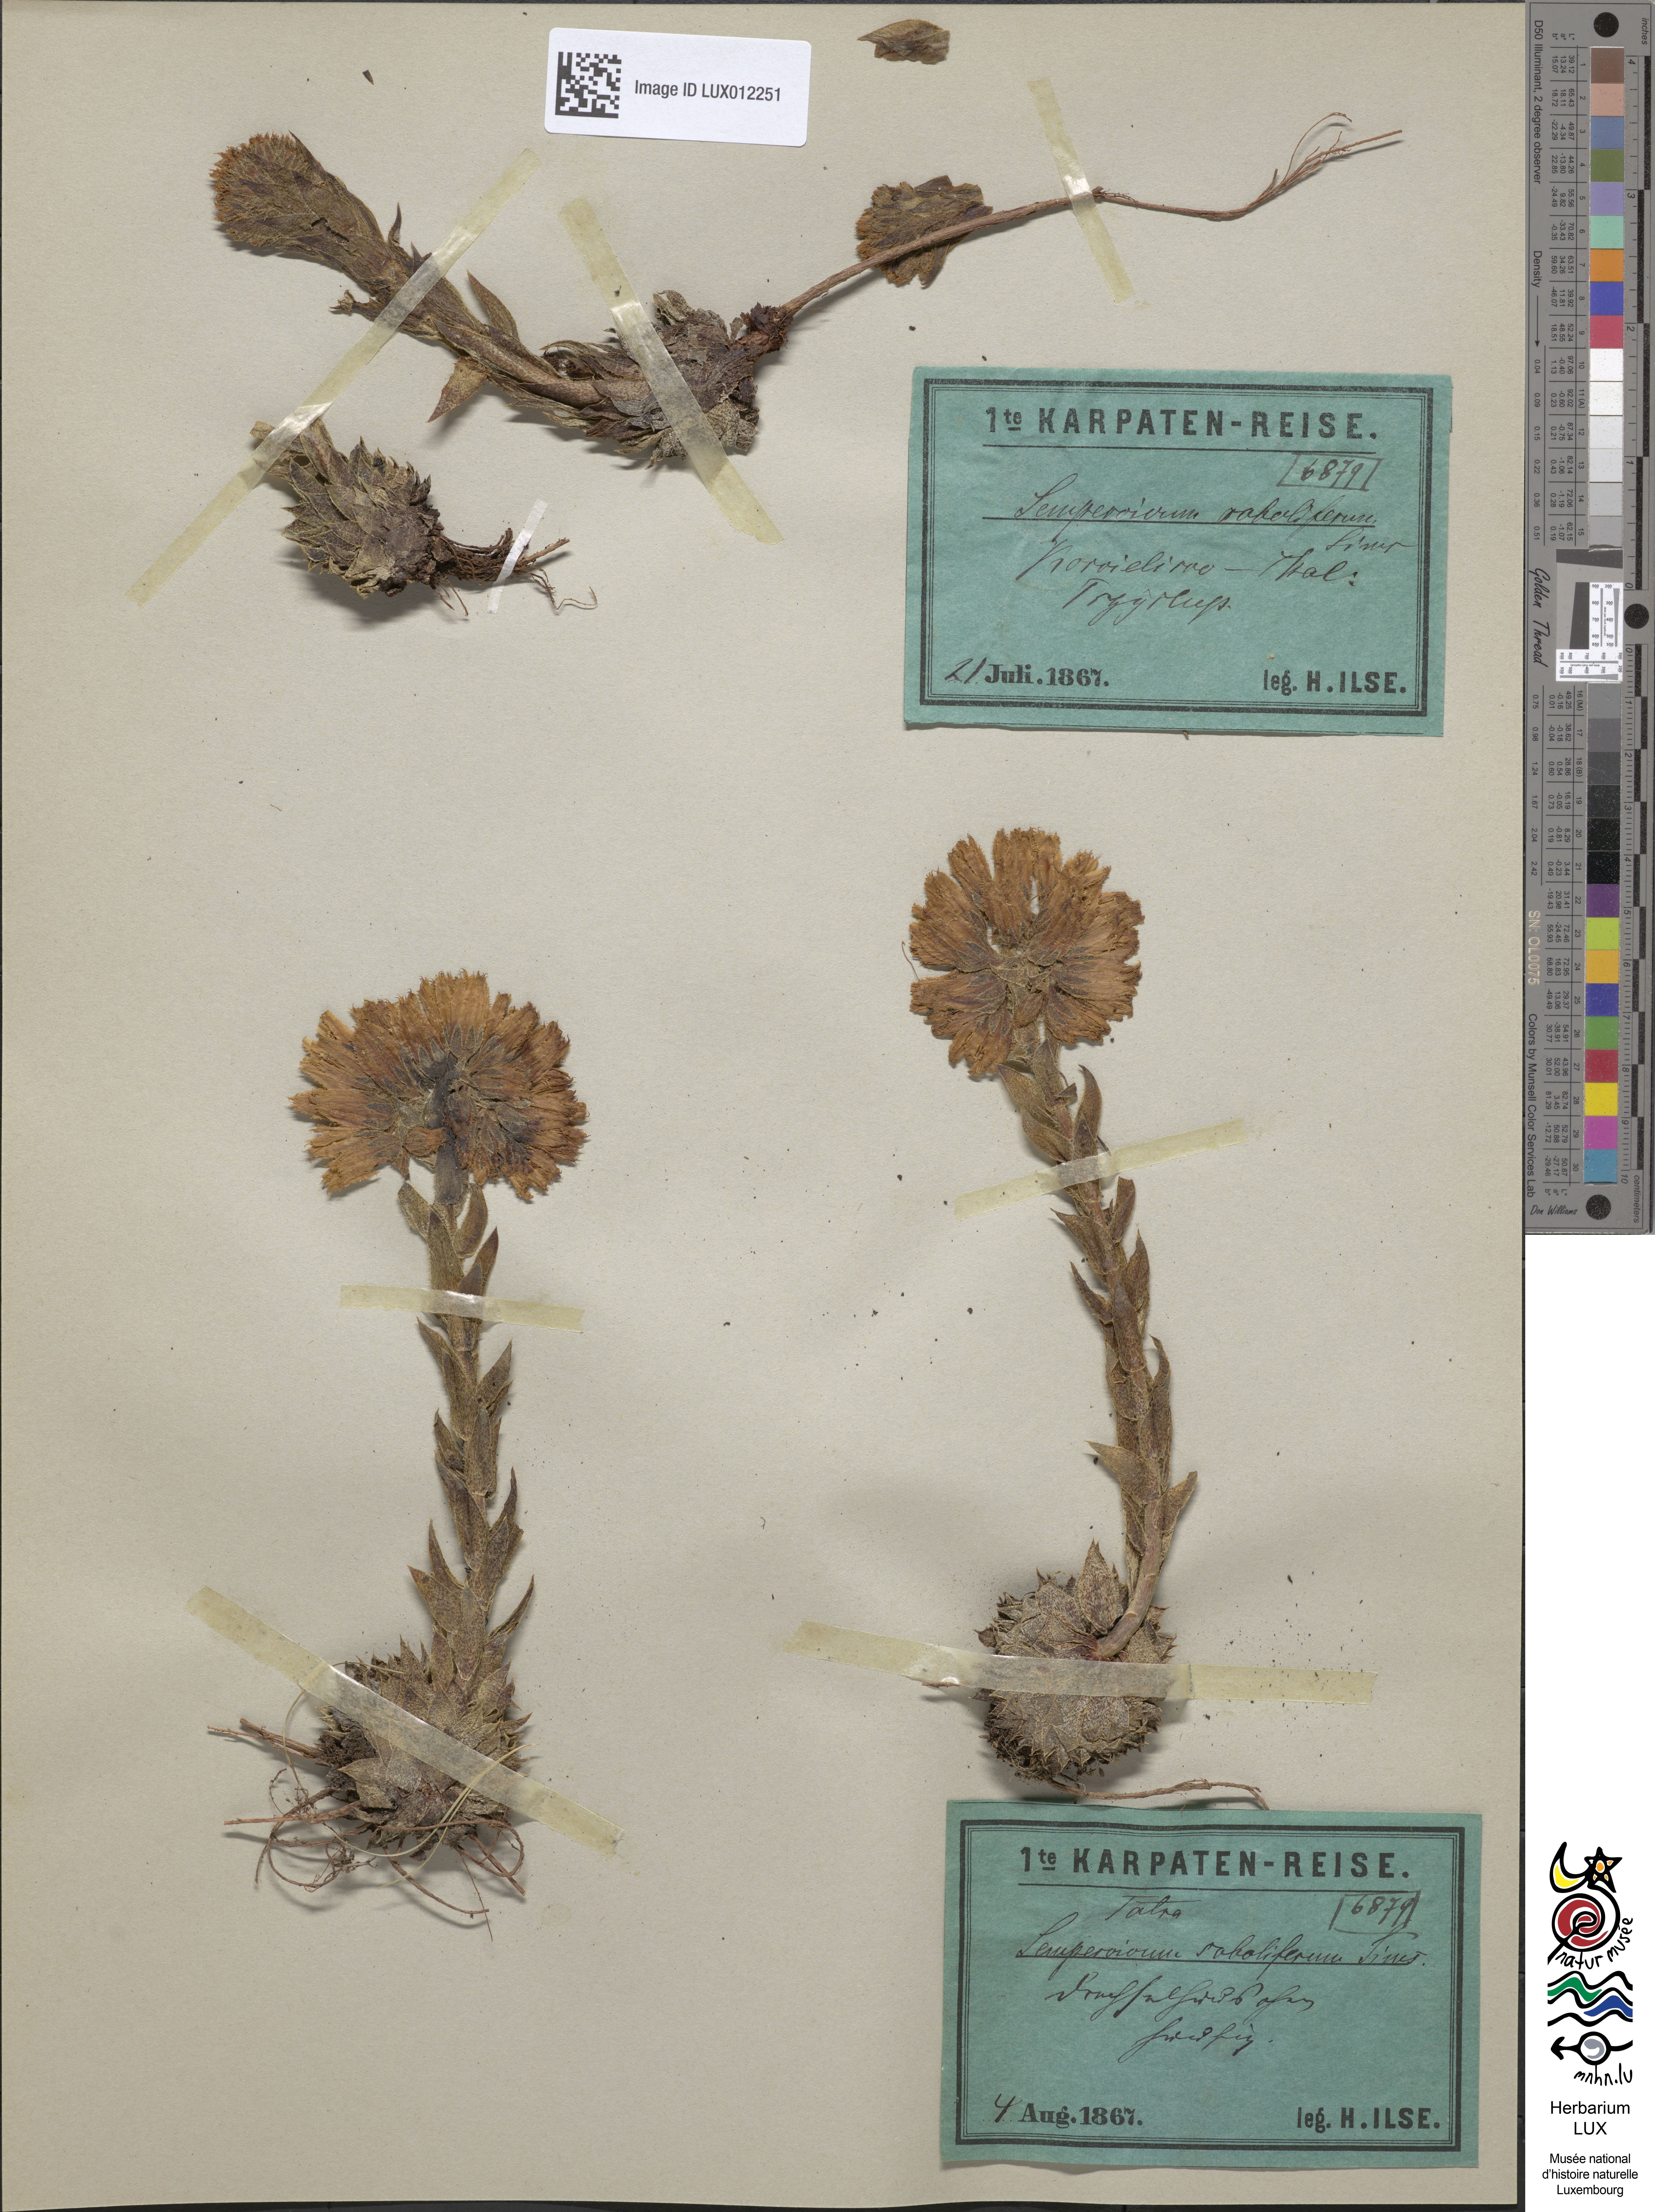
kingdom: Plantae
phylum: Tracheophyta
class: Magnoliopsida
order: Saxifragales
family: Crassulaceae
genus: Sempervivum
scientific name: Sempervivum globiferum
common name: Rolling hen-and-chicks
